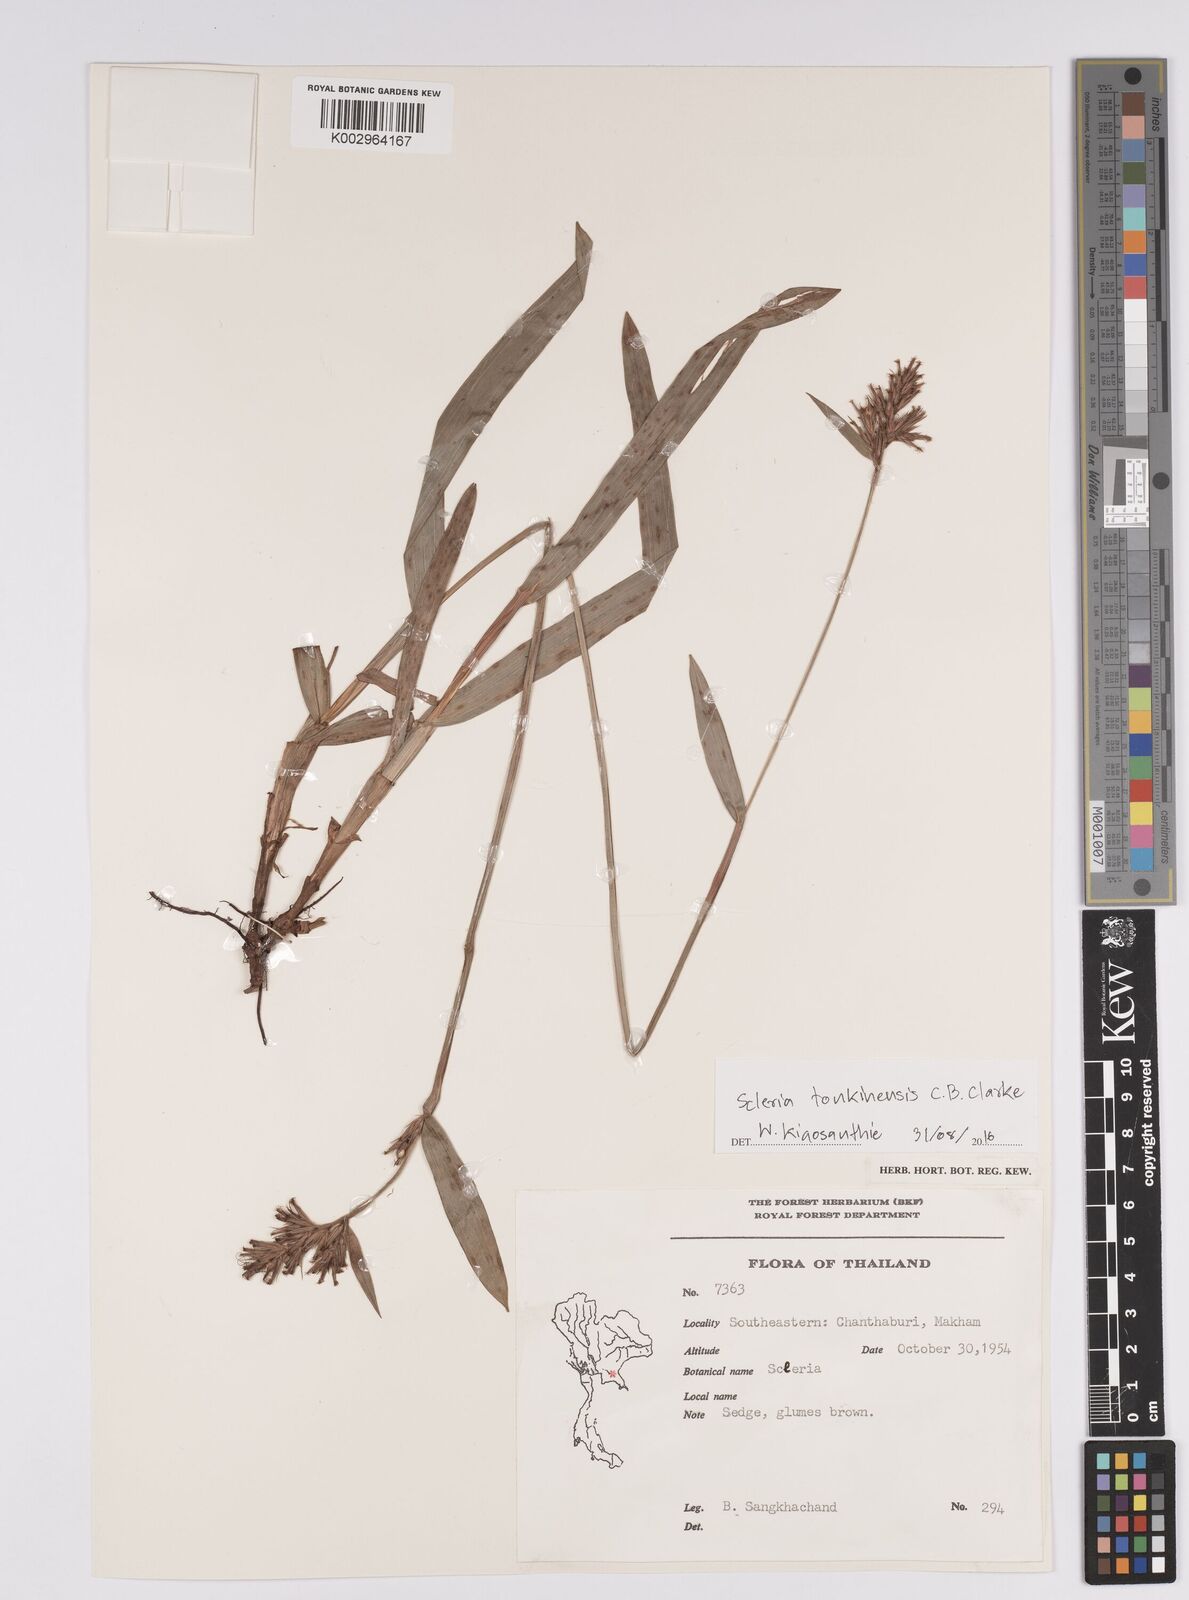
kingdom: Plantae
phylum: Tracheophyta
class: Liliopsida
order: Poales
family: Cyperaceae
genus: Scleria
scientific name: Scleria tonkinensis
